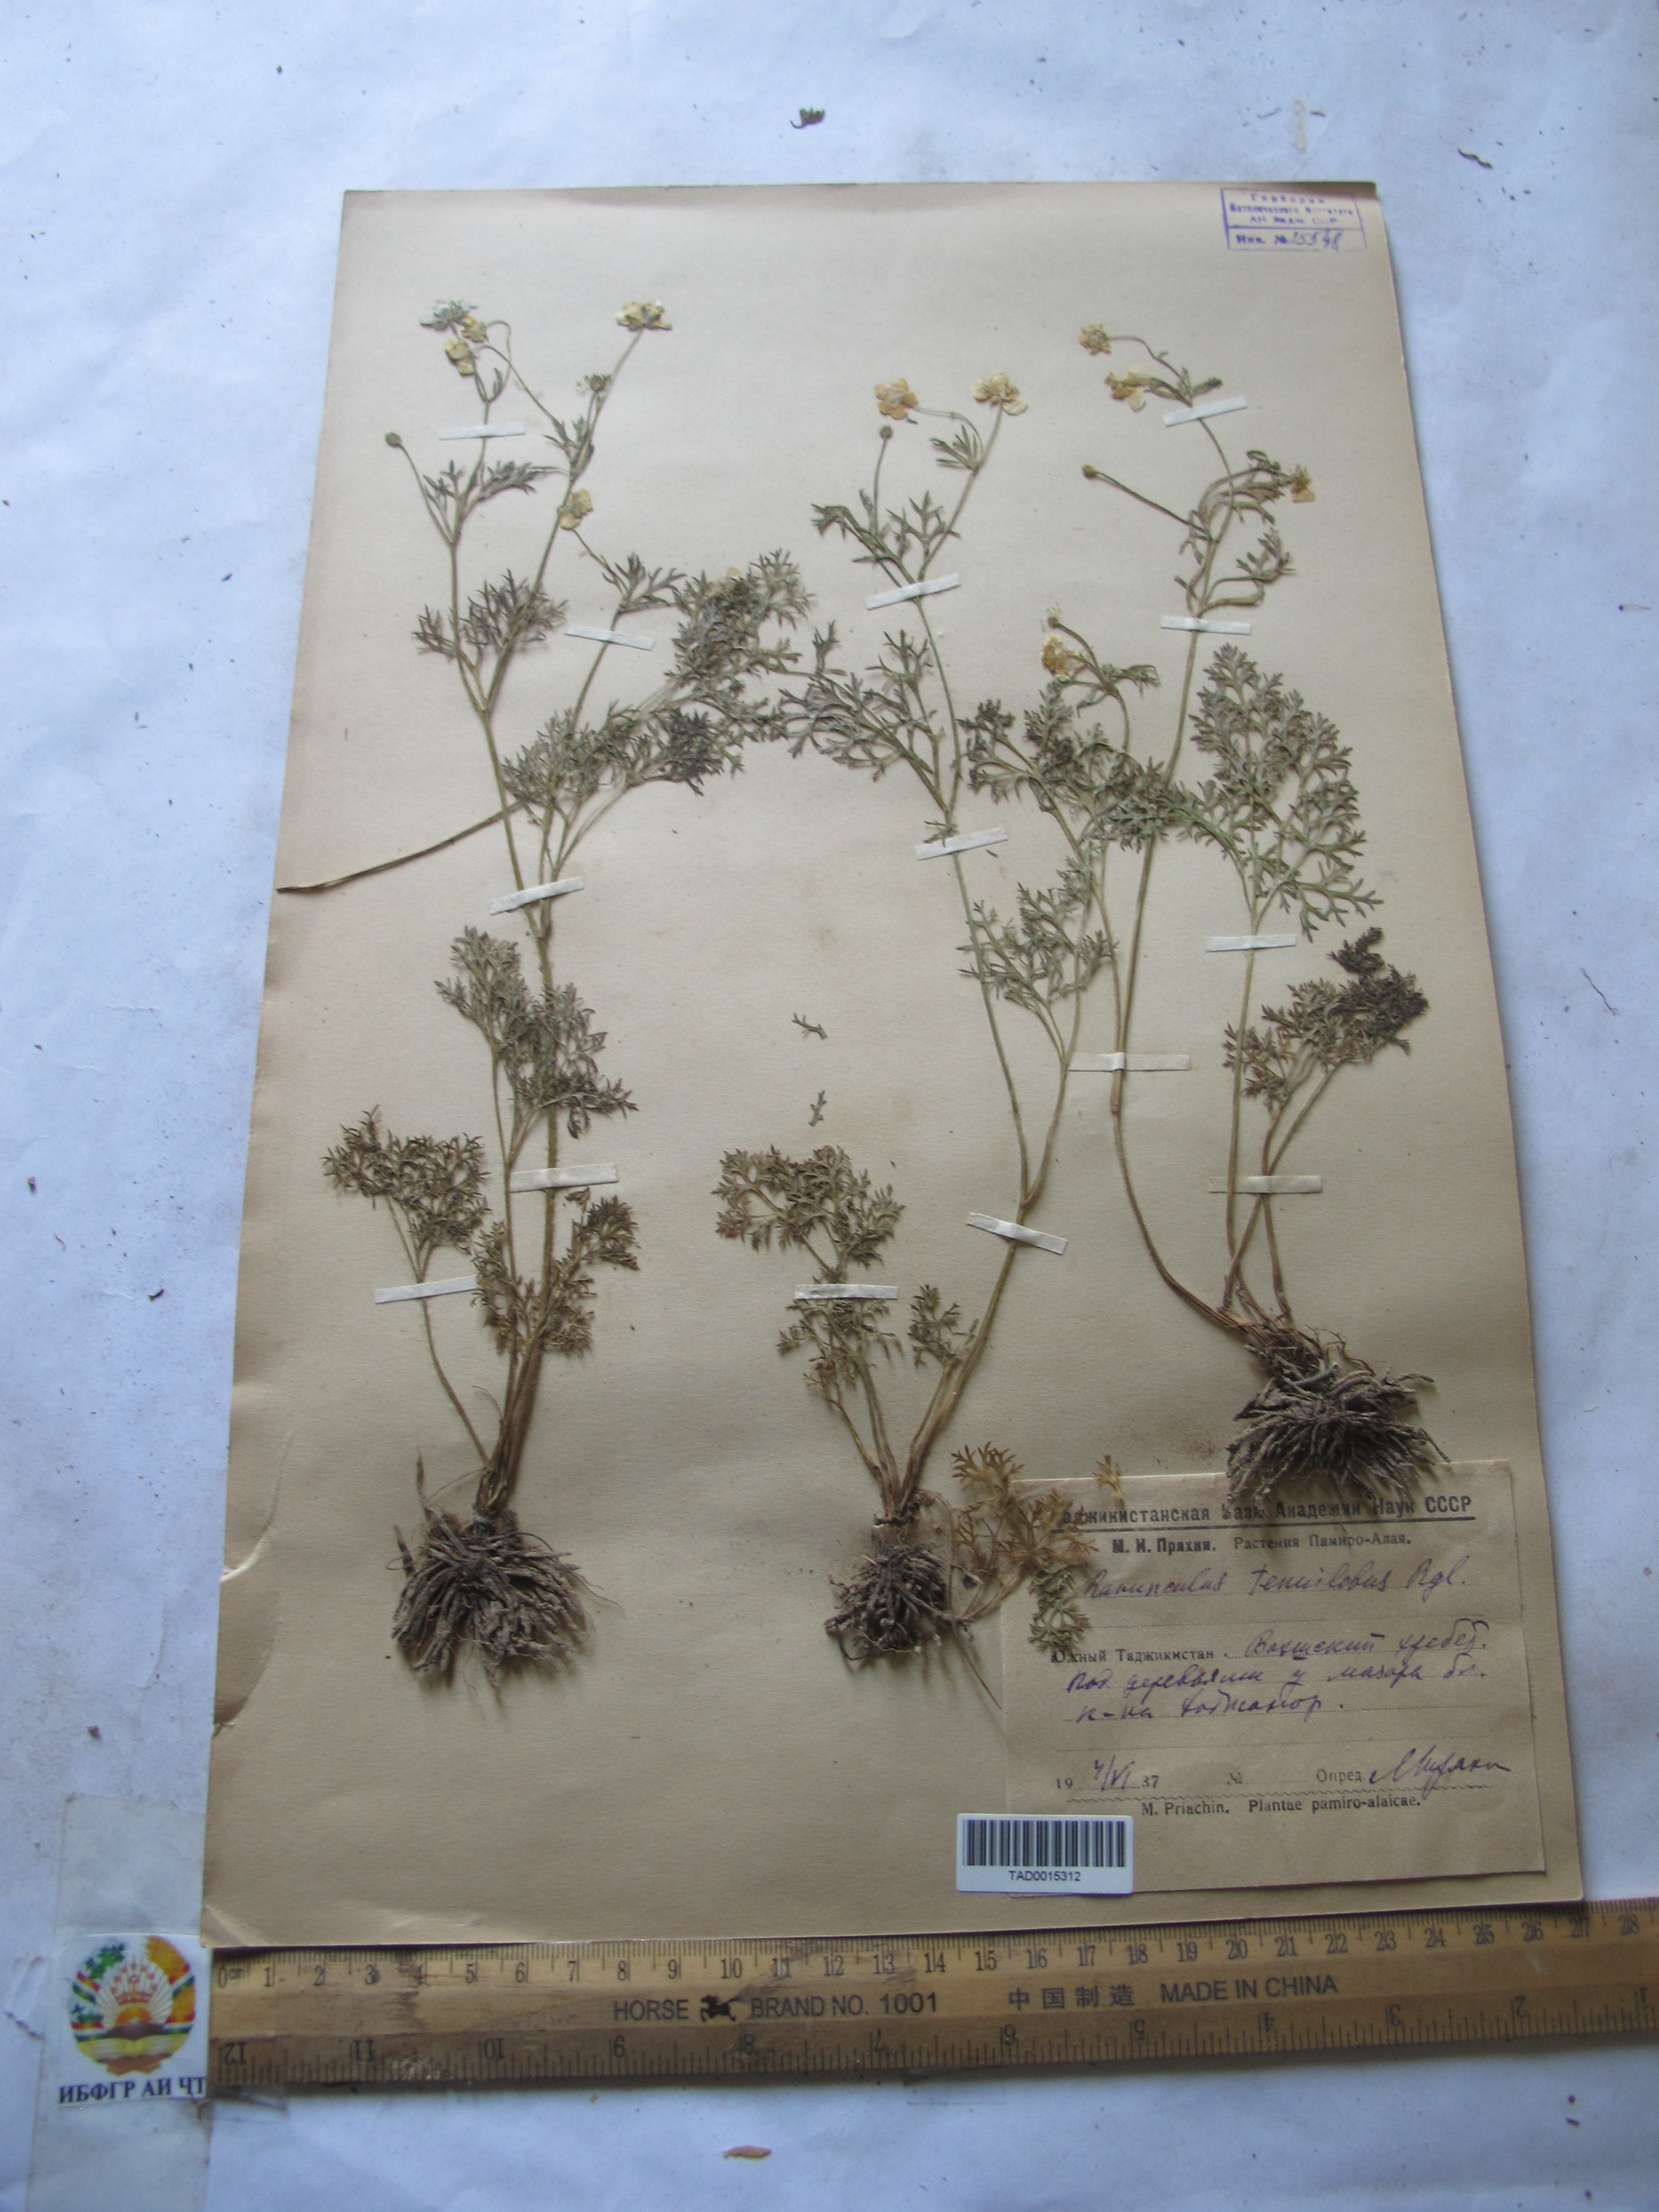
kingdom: Plantae
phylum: Tracheophyta
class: Magnoliopsida
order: Ranunculales
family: Ranunculaceae
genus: Ranunculus
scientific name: Ranunculus tenuilobus
